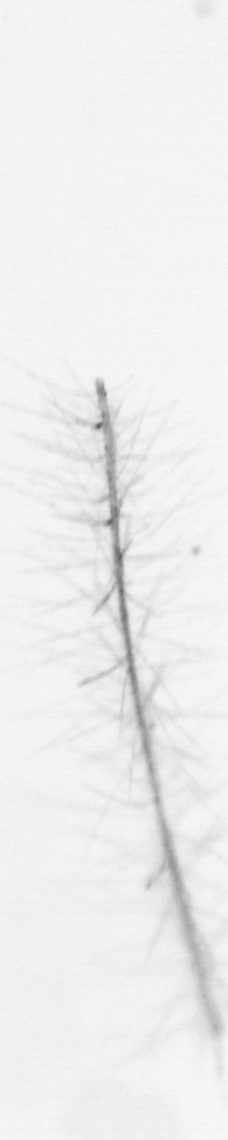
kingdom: Chromista
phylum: Ochrophyta
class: Bacillariophyceae
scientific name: Bacillariophyceae
